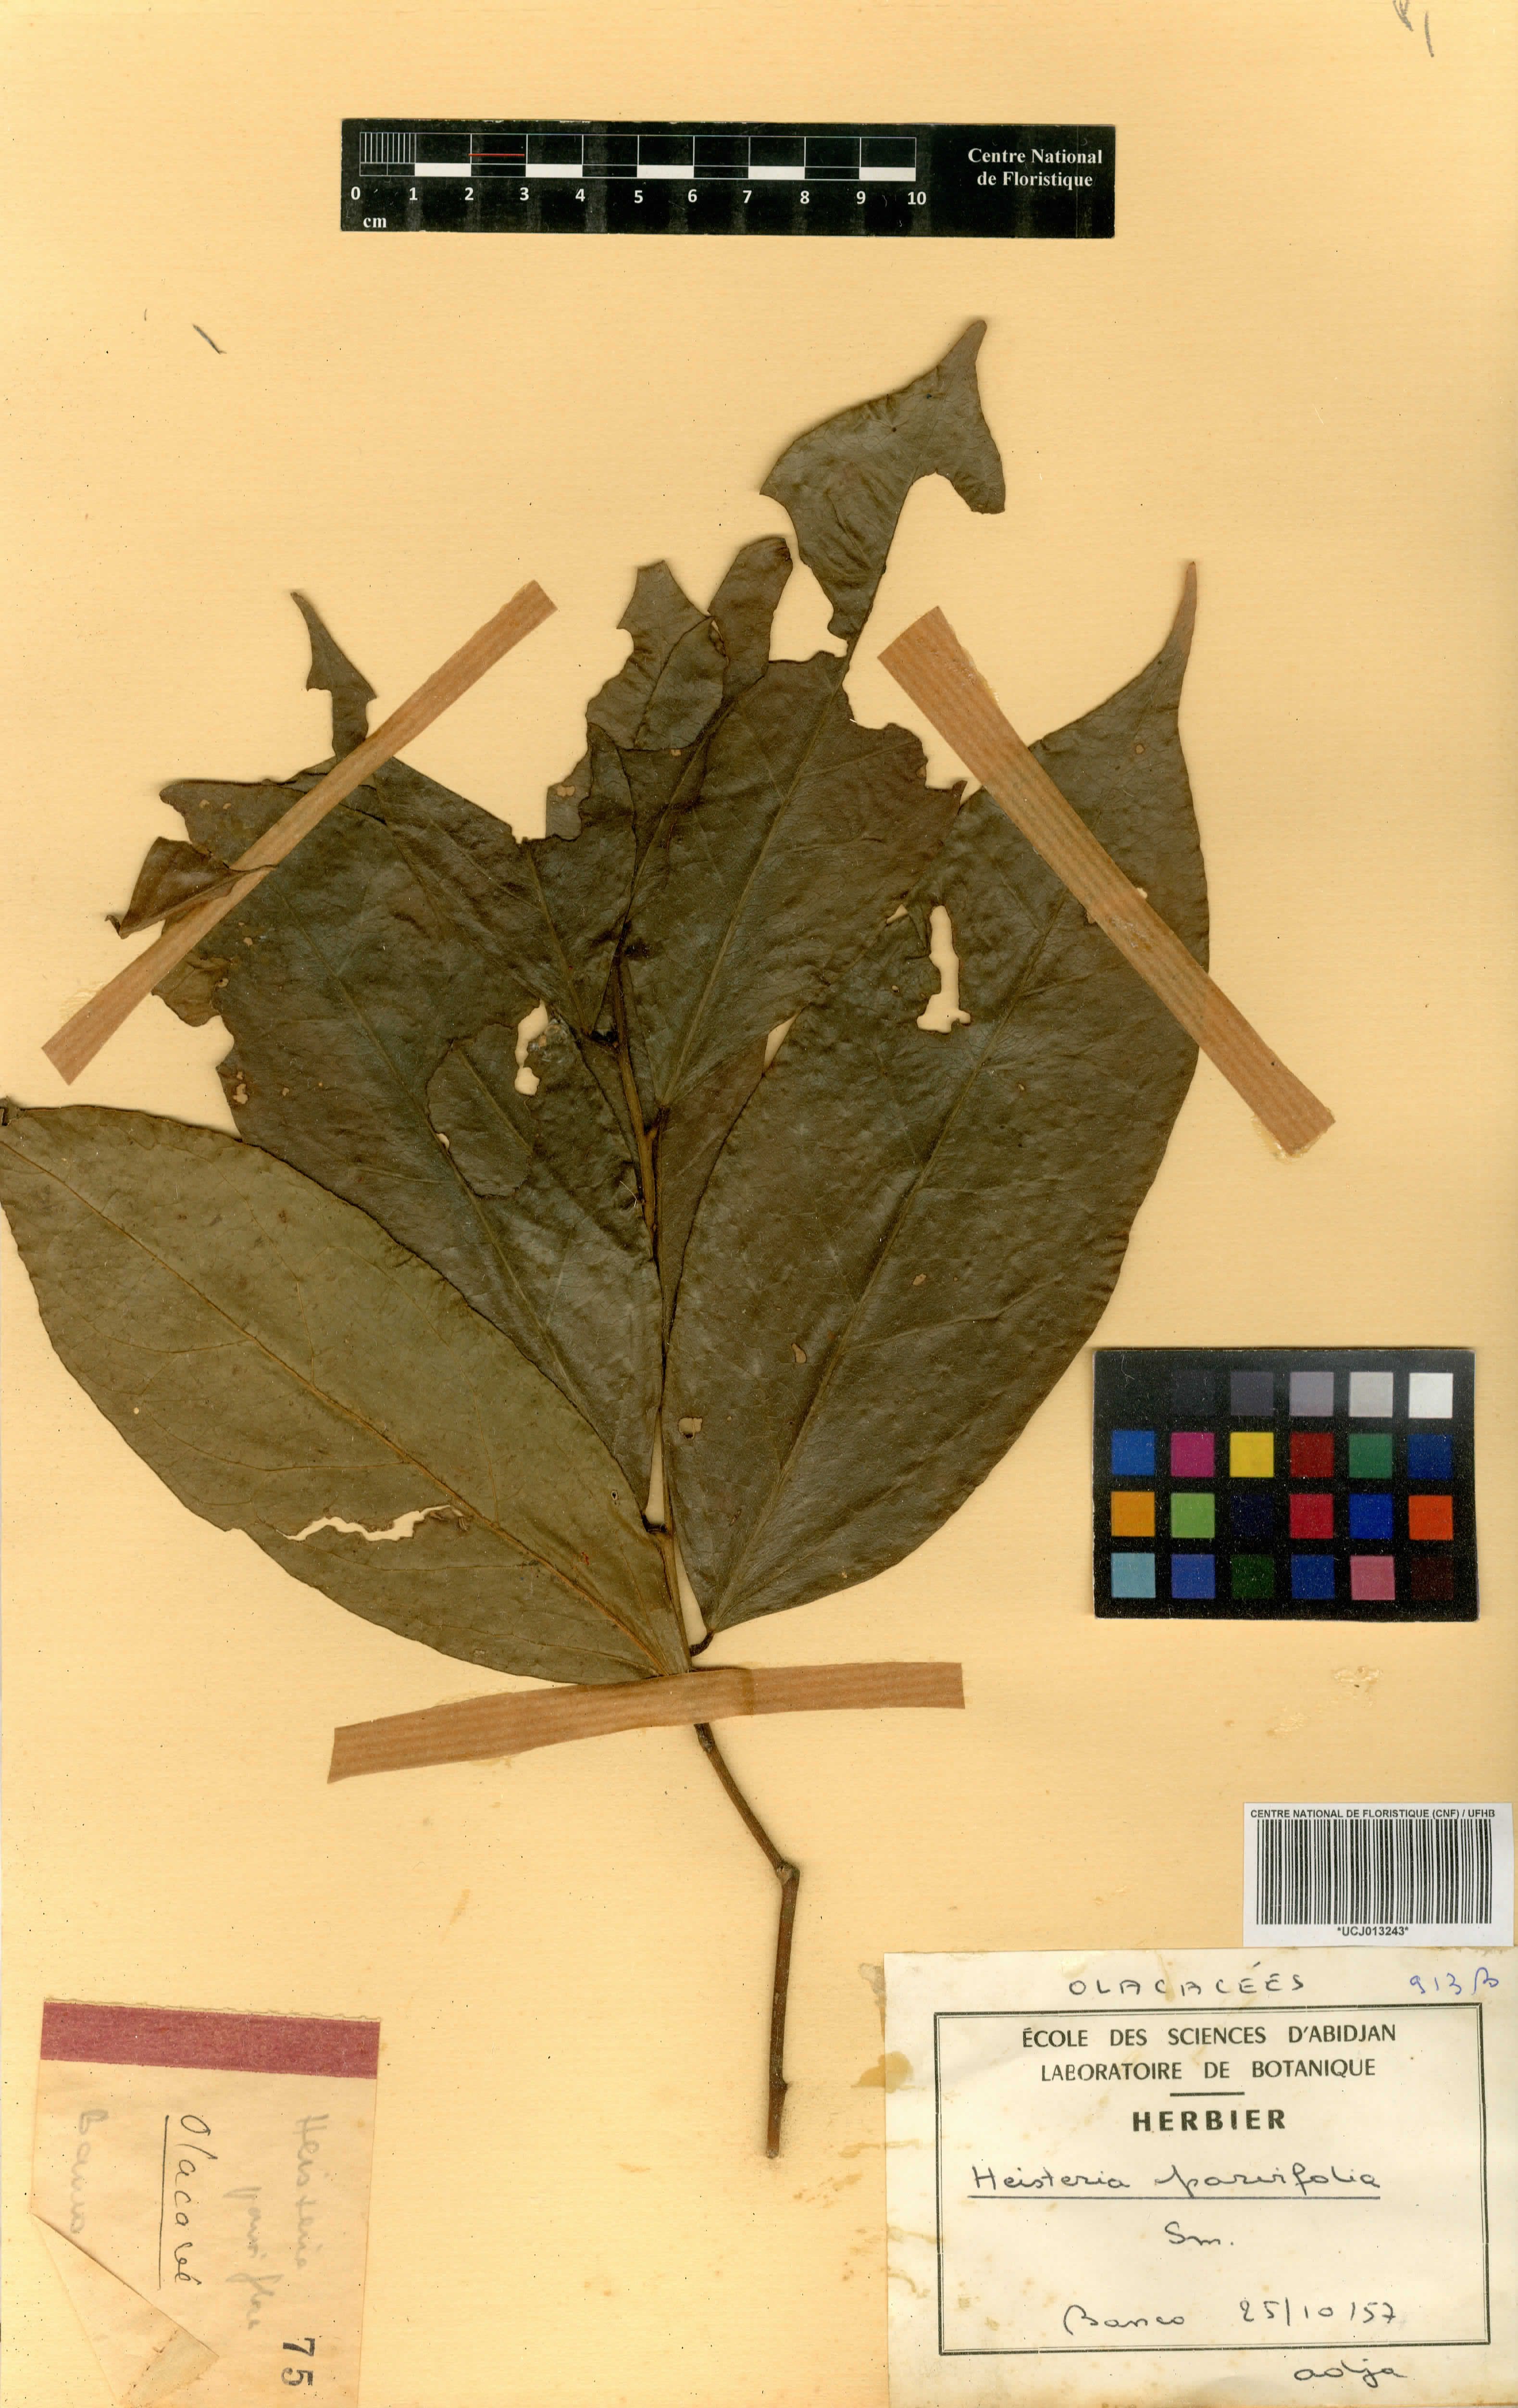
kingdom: Plantae
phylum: Tracheophyta
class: Magnoliopsida
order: Santalales
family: Erythropalaceae
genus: Heisteria
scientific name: Heisteria parvifolia
